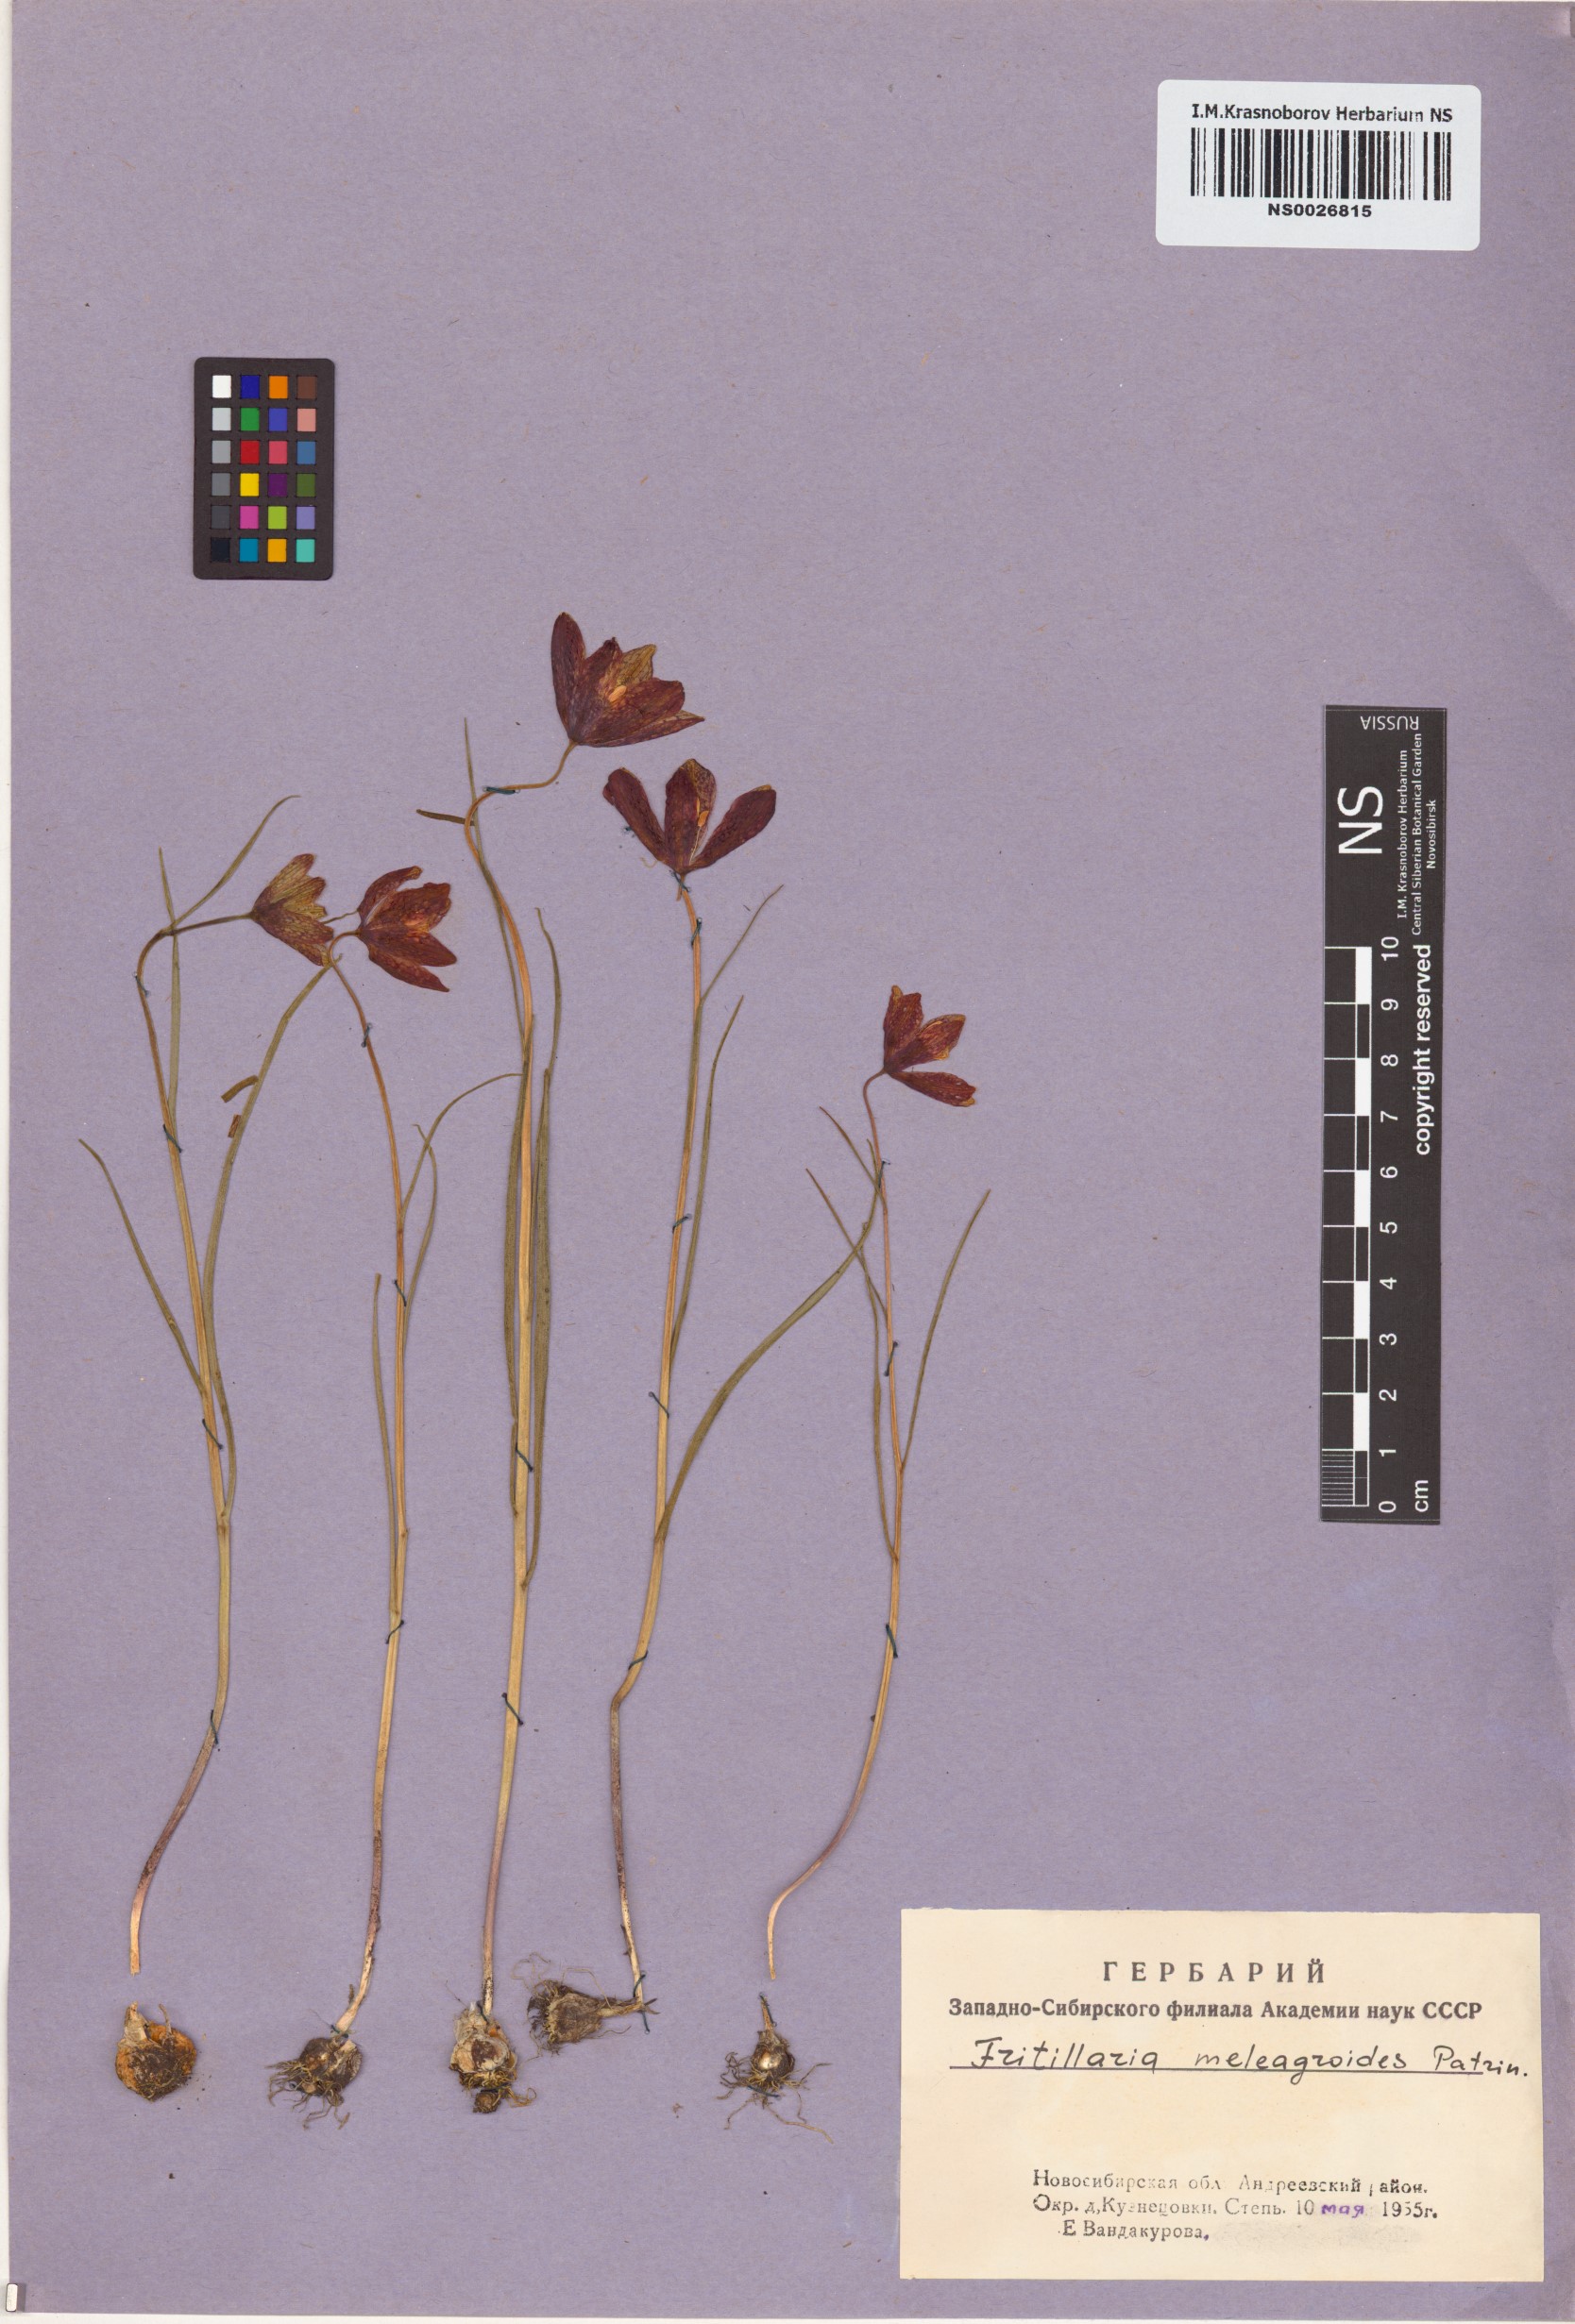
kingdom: Plantae
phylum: Tracheophyta
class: Liliopsida
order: Liliales
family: Liliaceae
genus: Fritillaria
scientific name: Fritillaria meleagroides
